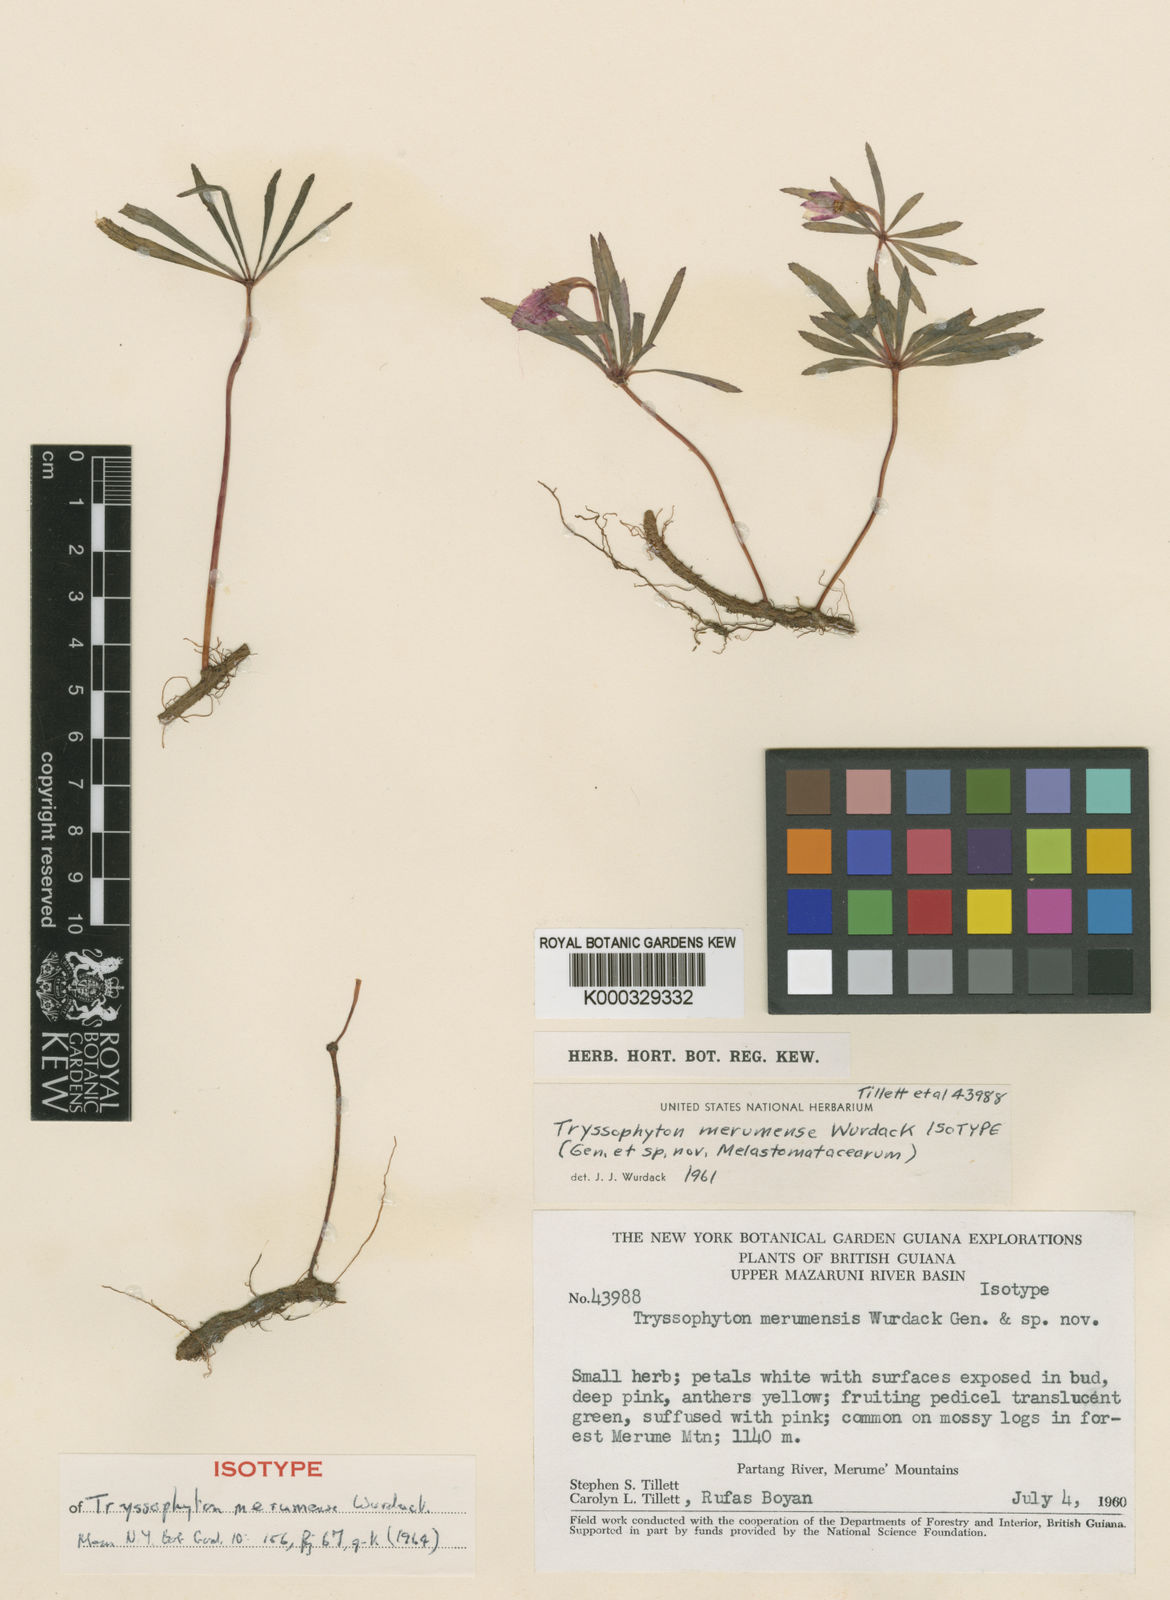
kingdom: Plantae
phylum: Tracheophyta
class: Magnoliopsida
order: Myrtales
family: Melastomataceae
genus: Tryssophyton
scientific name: Tryssophyton merumense
